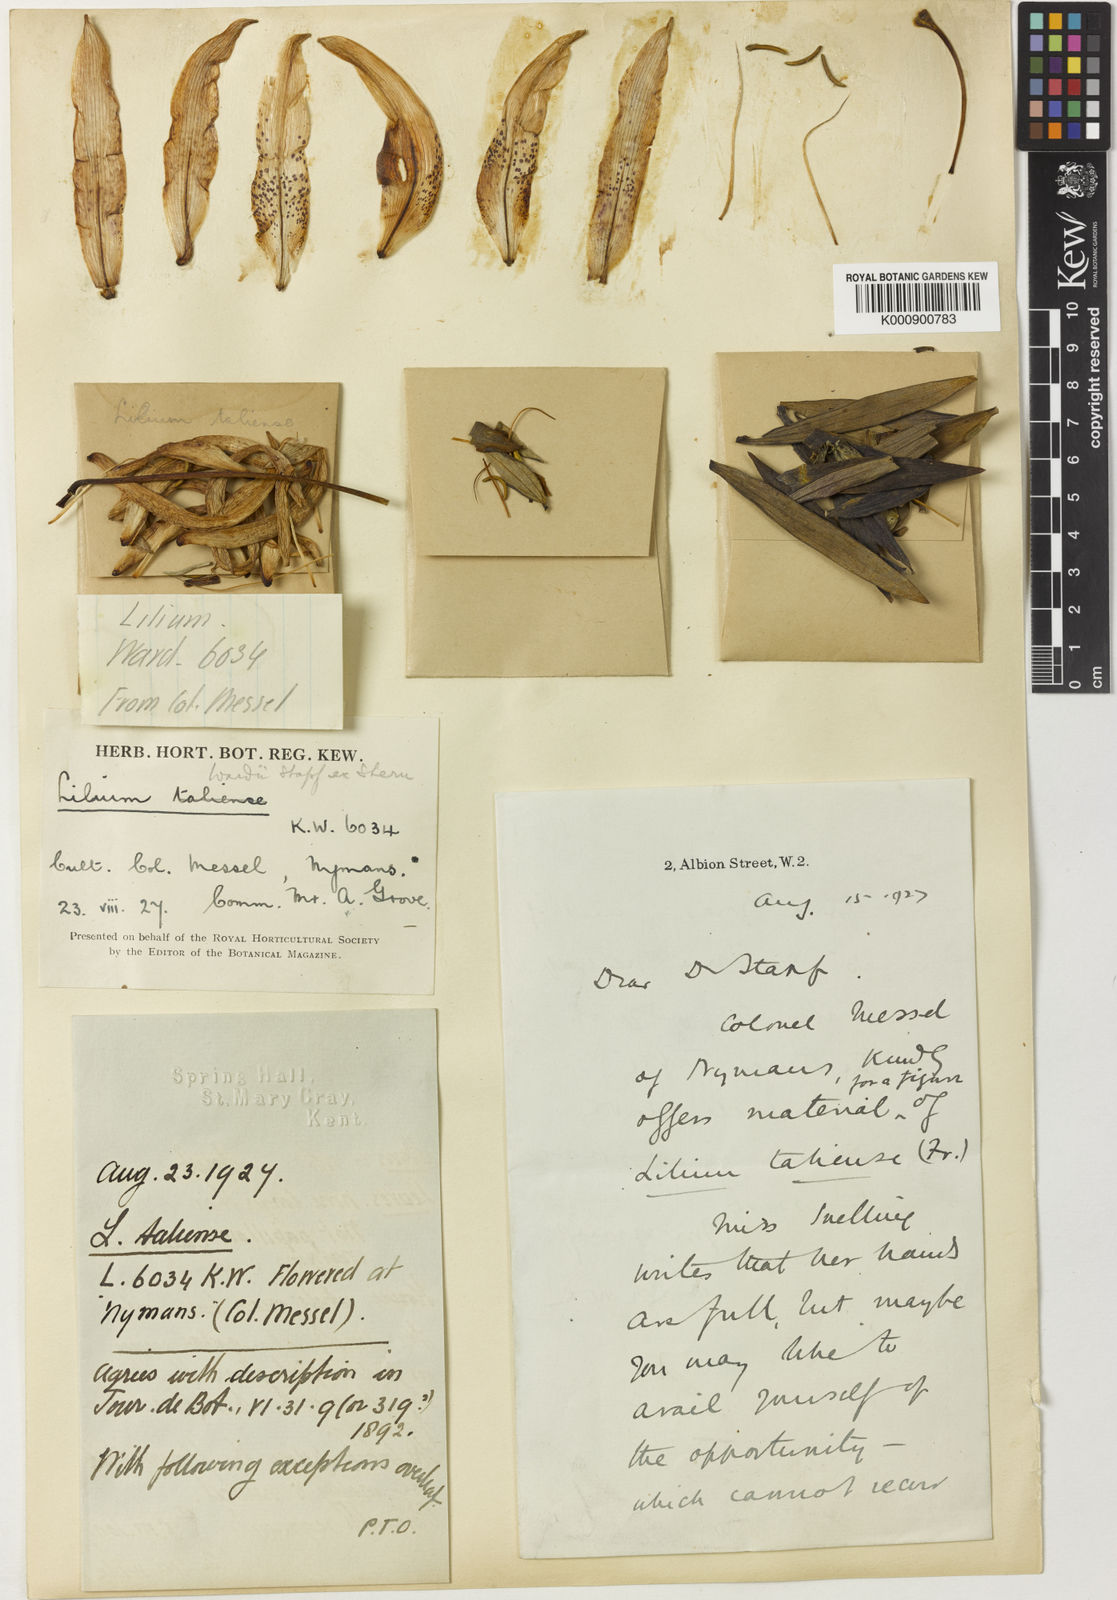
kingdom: Plantae
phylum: Tracheophyta
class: Liliopsida
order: Liliales
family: Liliaceae
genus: Lilium
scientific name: Lilium wardii
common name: Ward's lily
